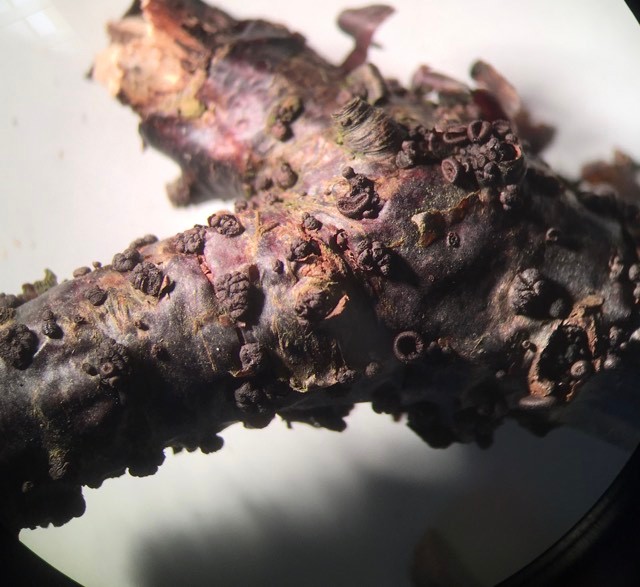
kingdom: Fungi
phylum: Ascomycota
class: Leotiomycetes
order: Helotiales
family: Godroniaceae
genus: Godronia
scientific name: Godronia uberiformis
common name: solbær-urneskive
